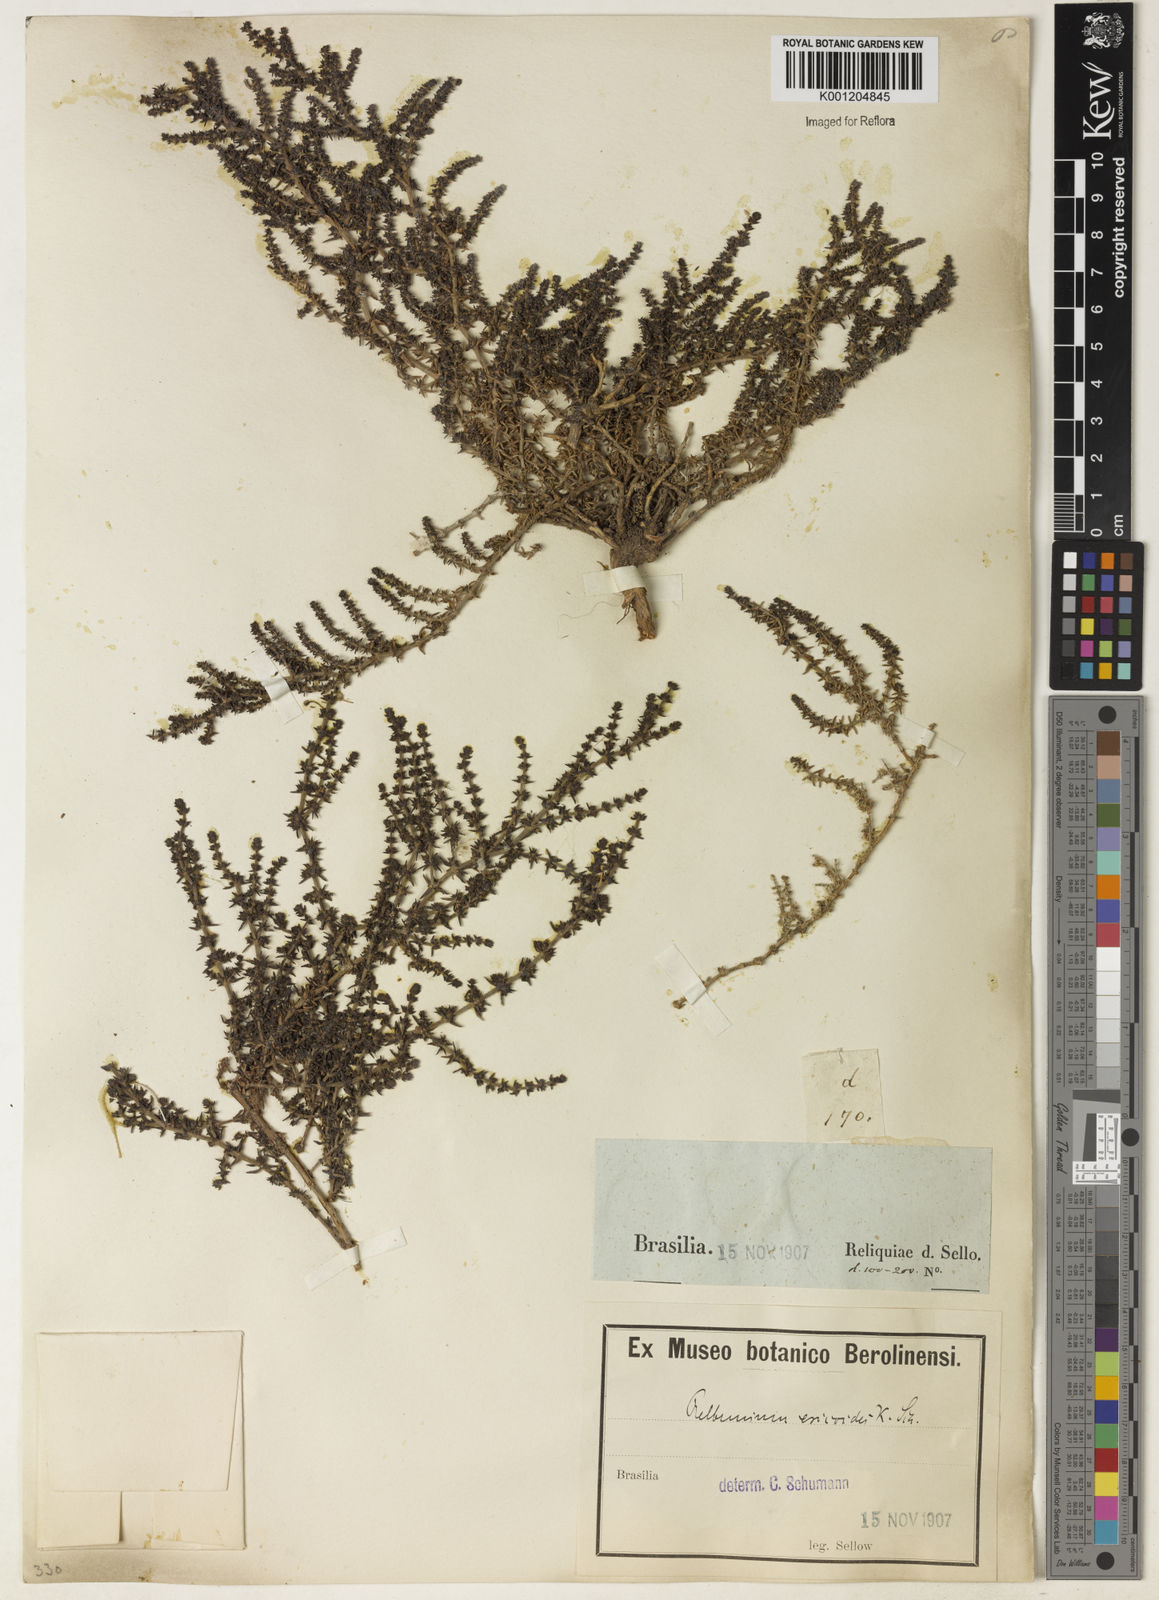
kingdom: Plantae
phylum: Tracheophyta
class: Magnoliopsida
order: Gentianales
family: Rubiaceae
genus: Galium
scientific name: Galium ericoides
